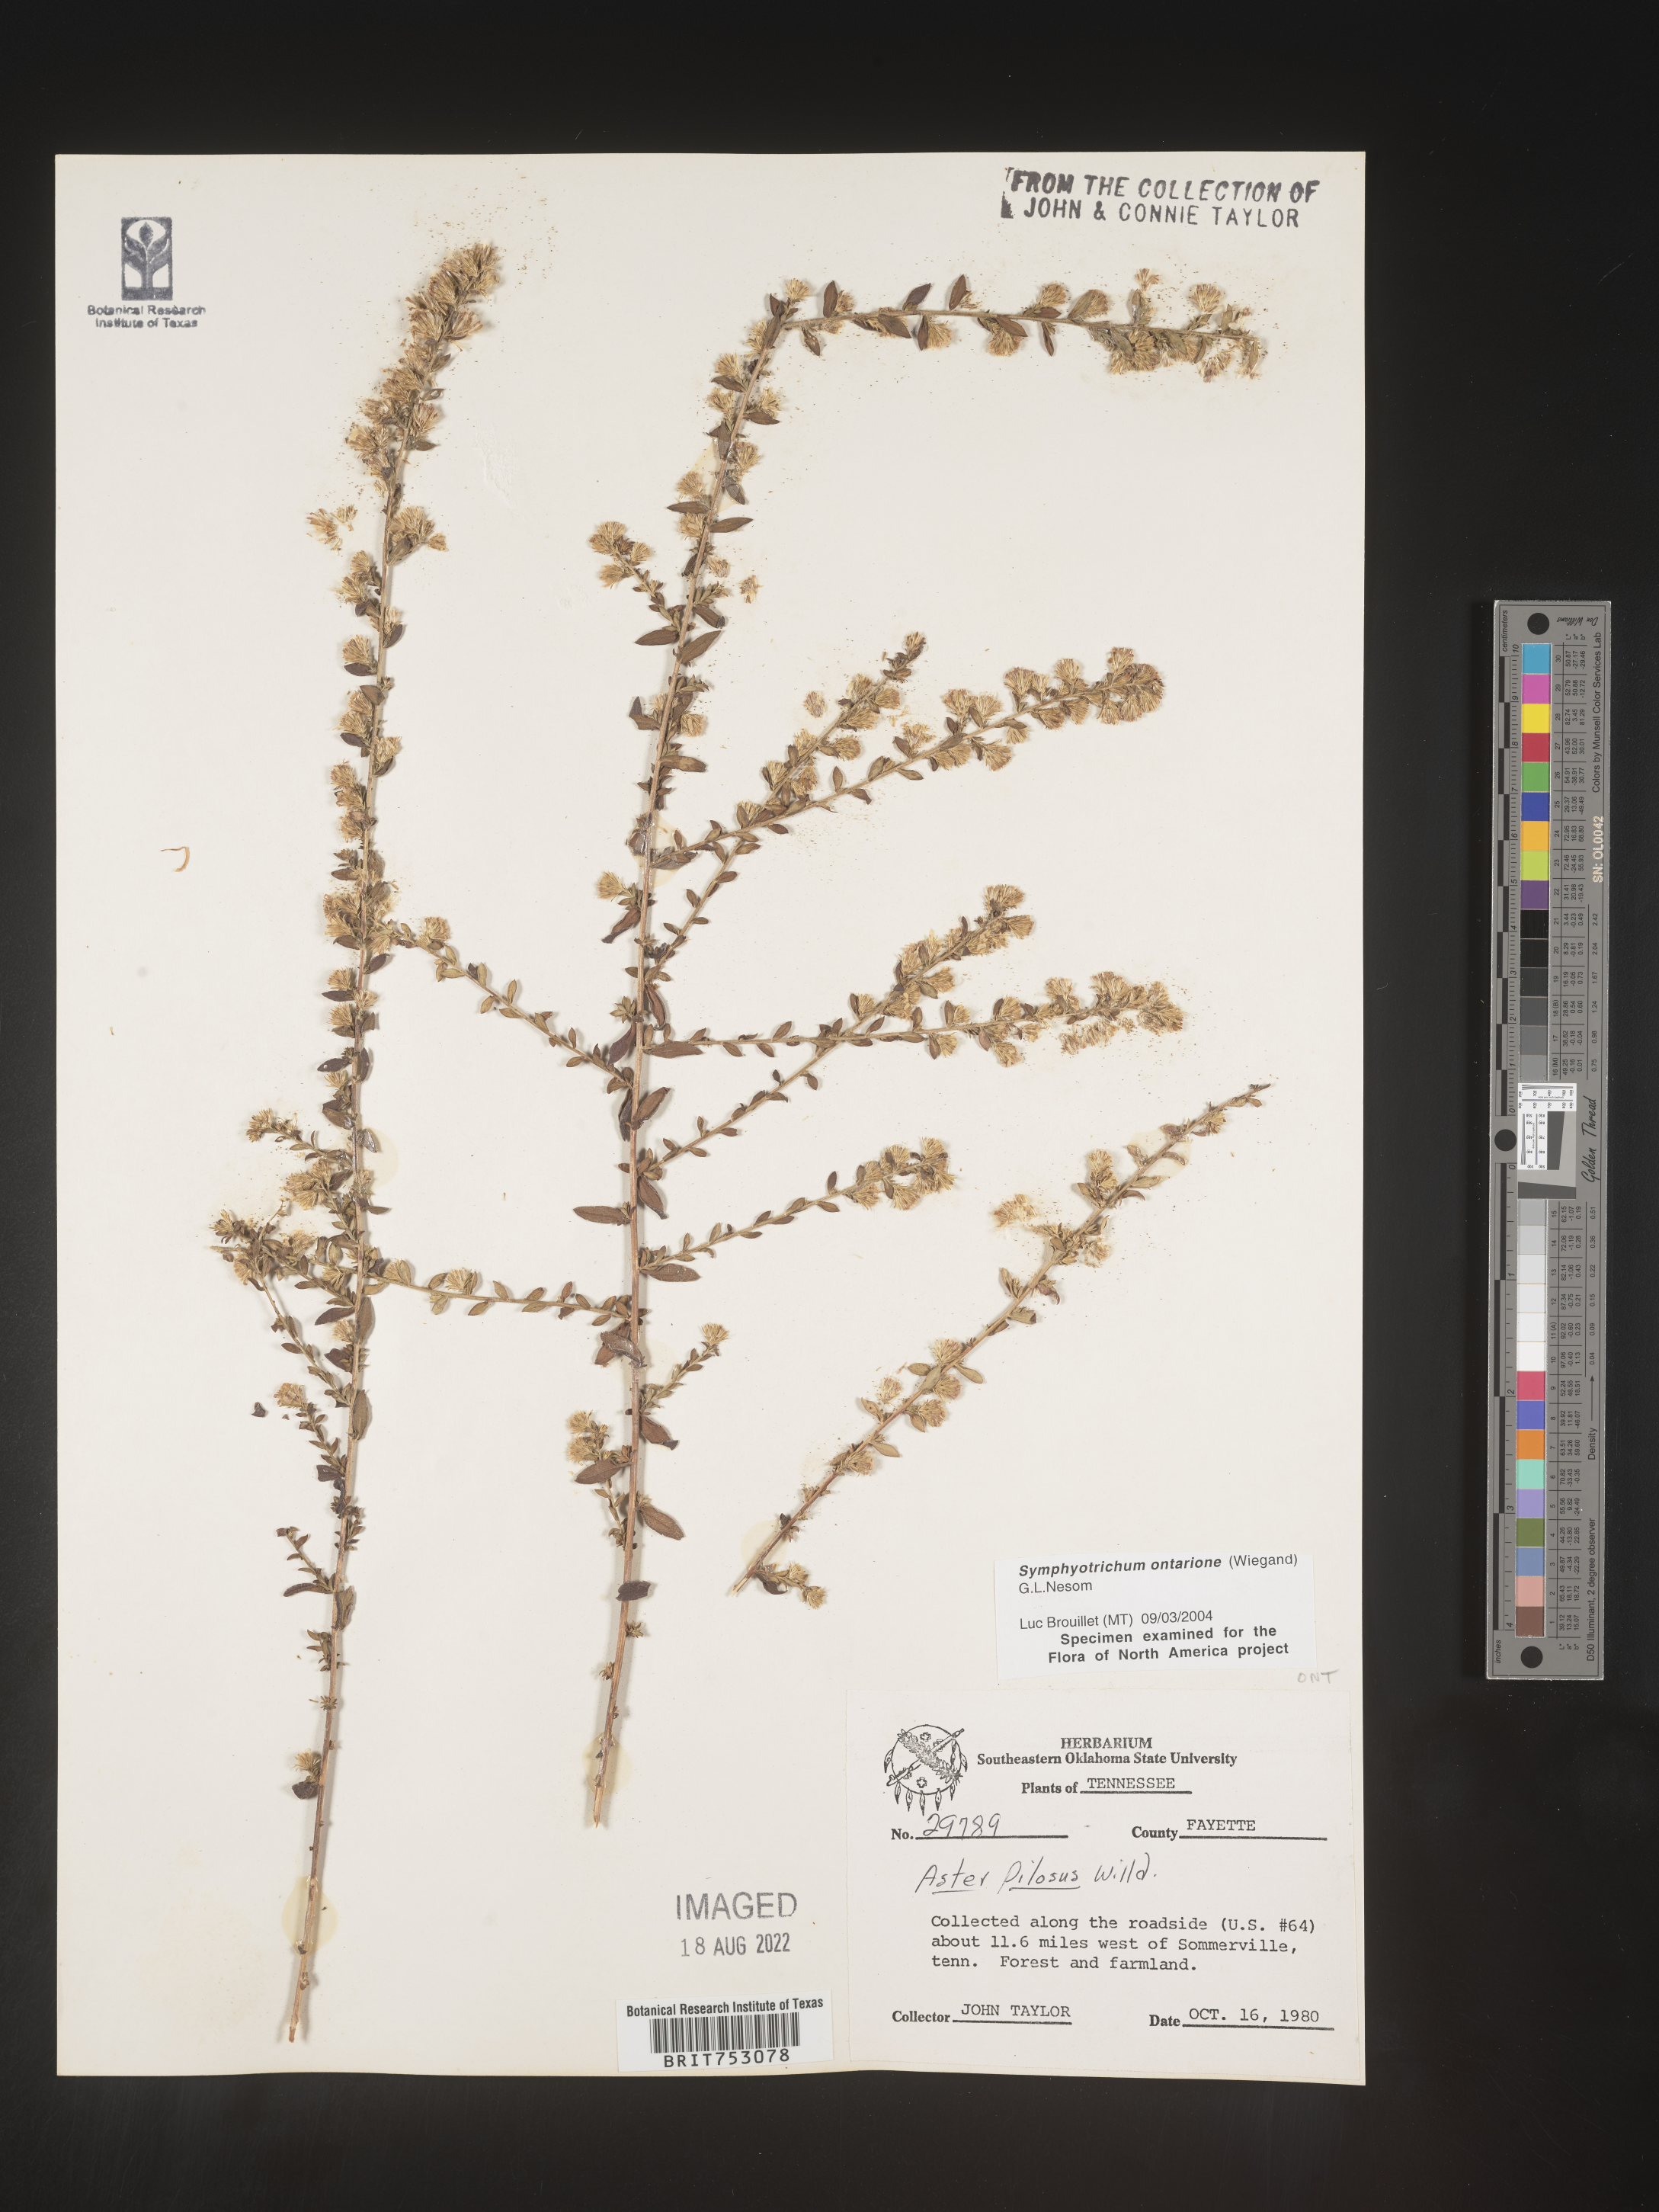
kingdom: Plantae
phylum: Tracheophyta
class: Magnoliopsida
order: Asterales
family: Asteraceae
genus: Symphyotrichum
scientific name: Symphyotrichum ontarionis
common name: Bottomland aster
